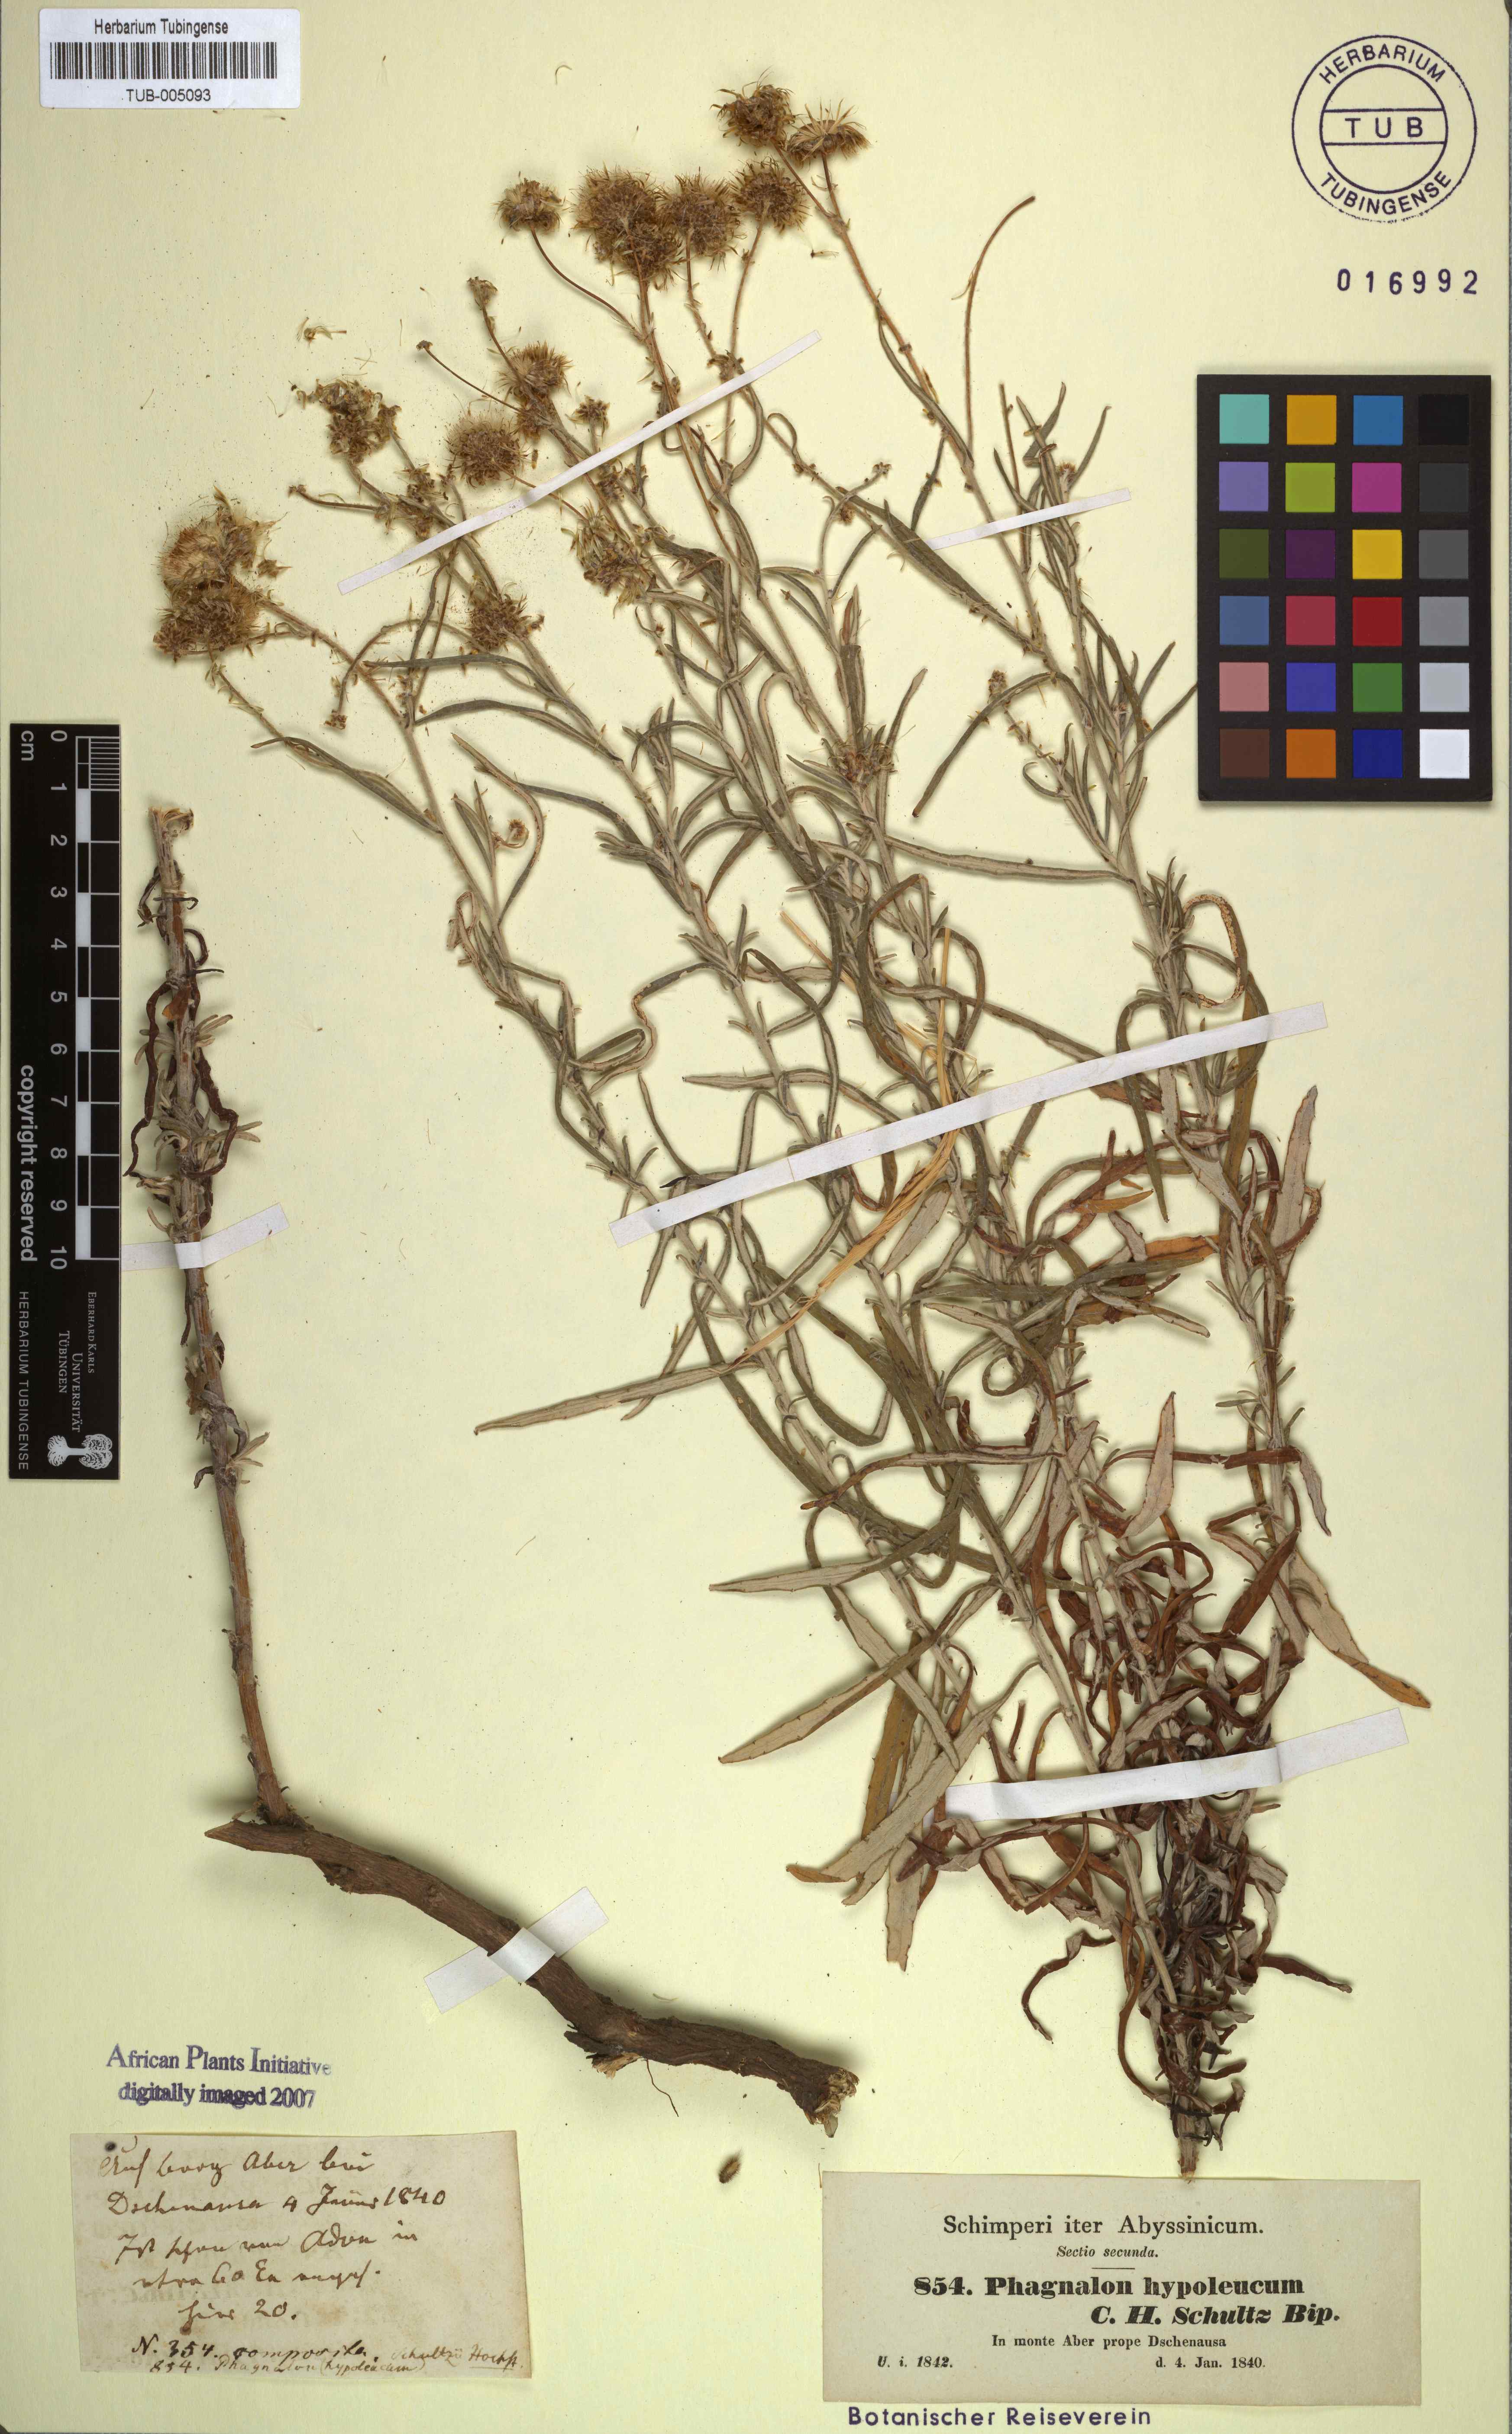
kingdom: Plantae
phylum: Tracheophyta
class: Magnoliopsida
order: Asterales
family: Asteraceae
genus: Phagnalon
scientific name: Phagnalon abyssinicum
